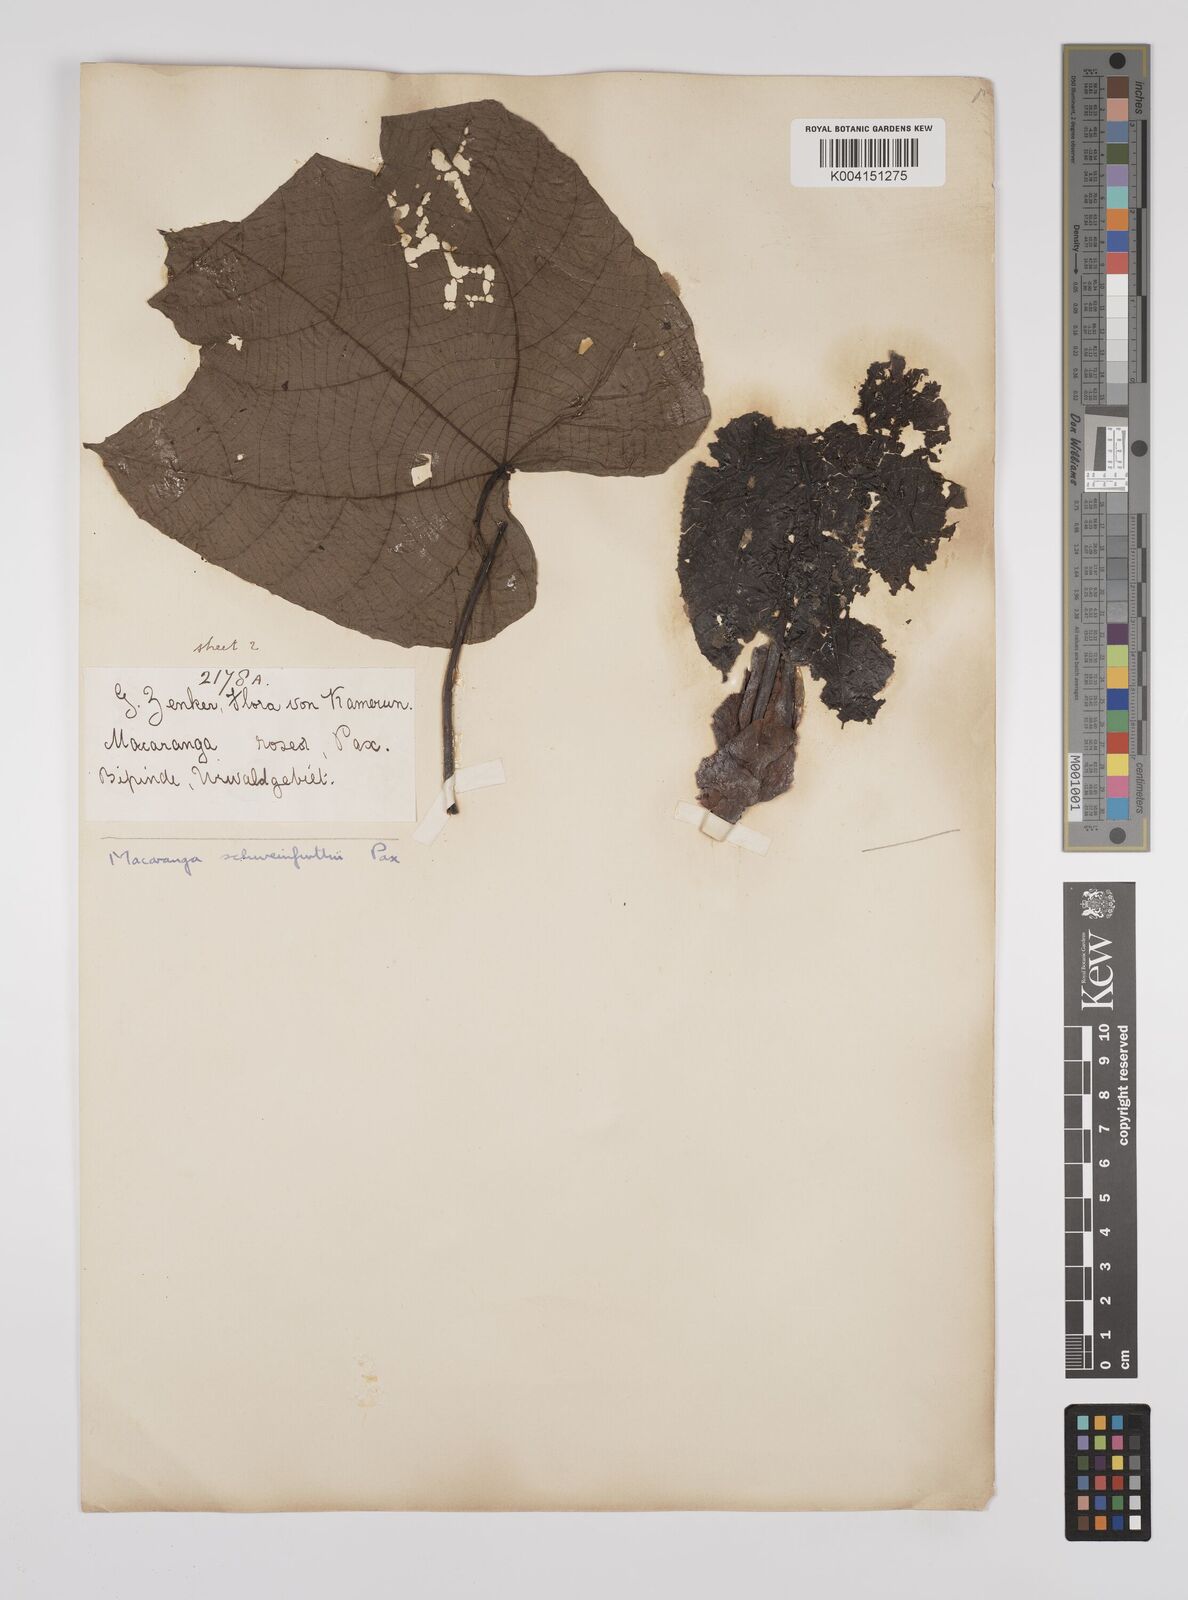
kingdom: Plantae
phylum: Tracheophyta
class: Magnoliopsida
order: Malpighiales
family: Euphorbiaceae
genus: Macaranga
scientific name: Macaranga schweinfurthii
